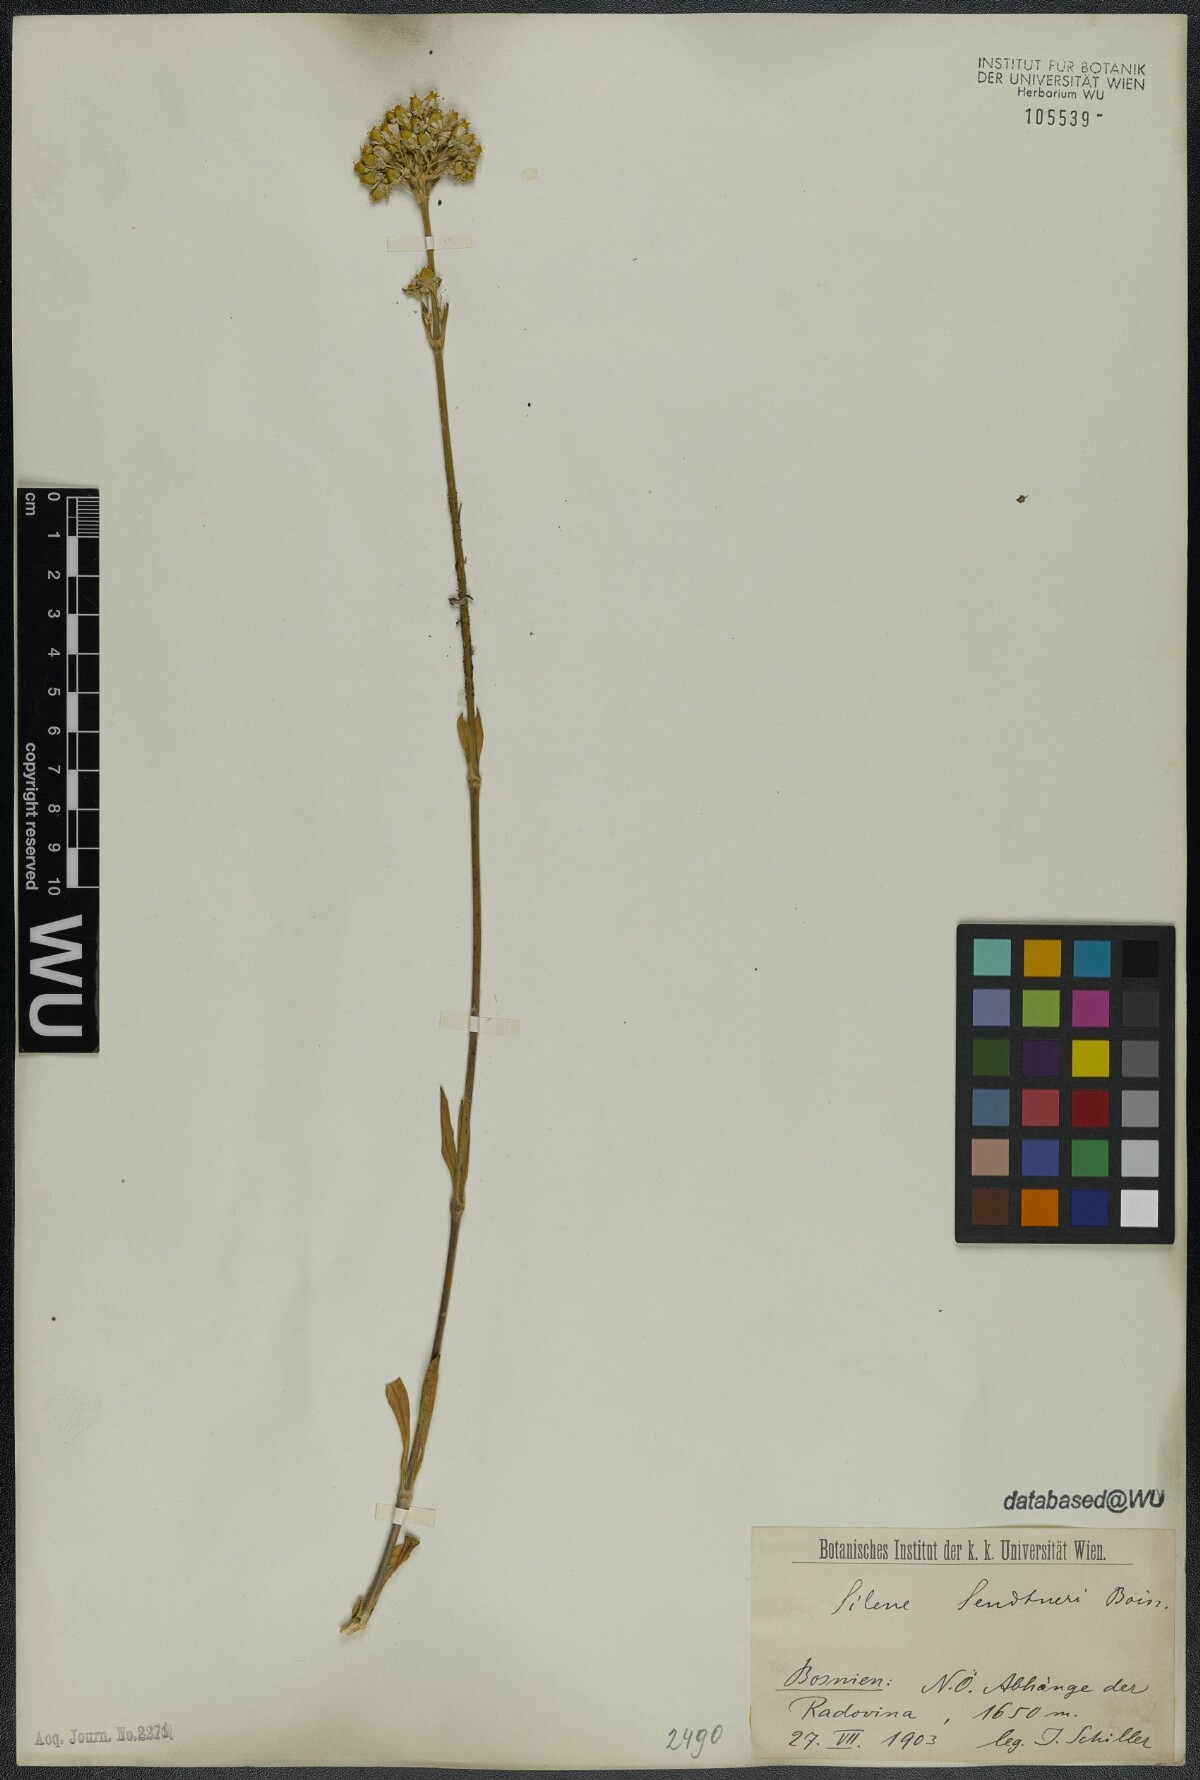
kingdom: Plantae
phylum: Tracheophyta
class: Magnoliopsida
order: Caryophyllales
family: Caryophyllaceae
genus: Silene
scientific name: Silene sendtneri
